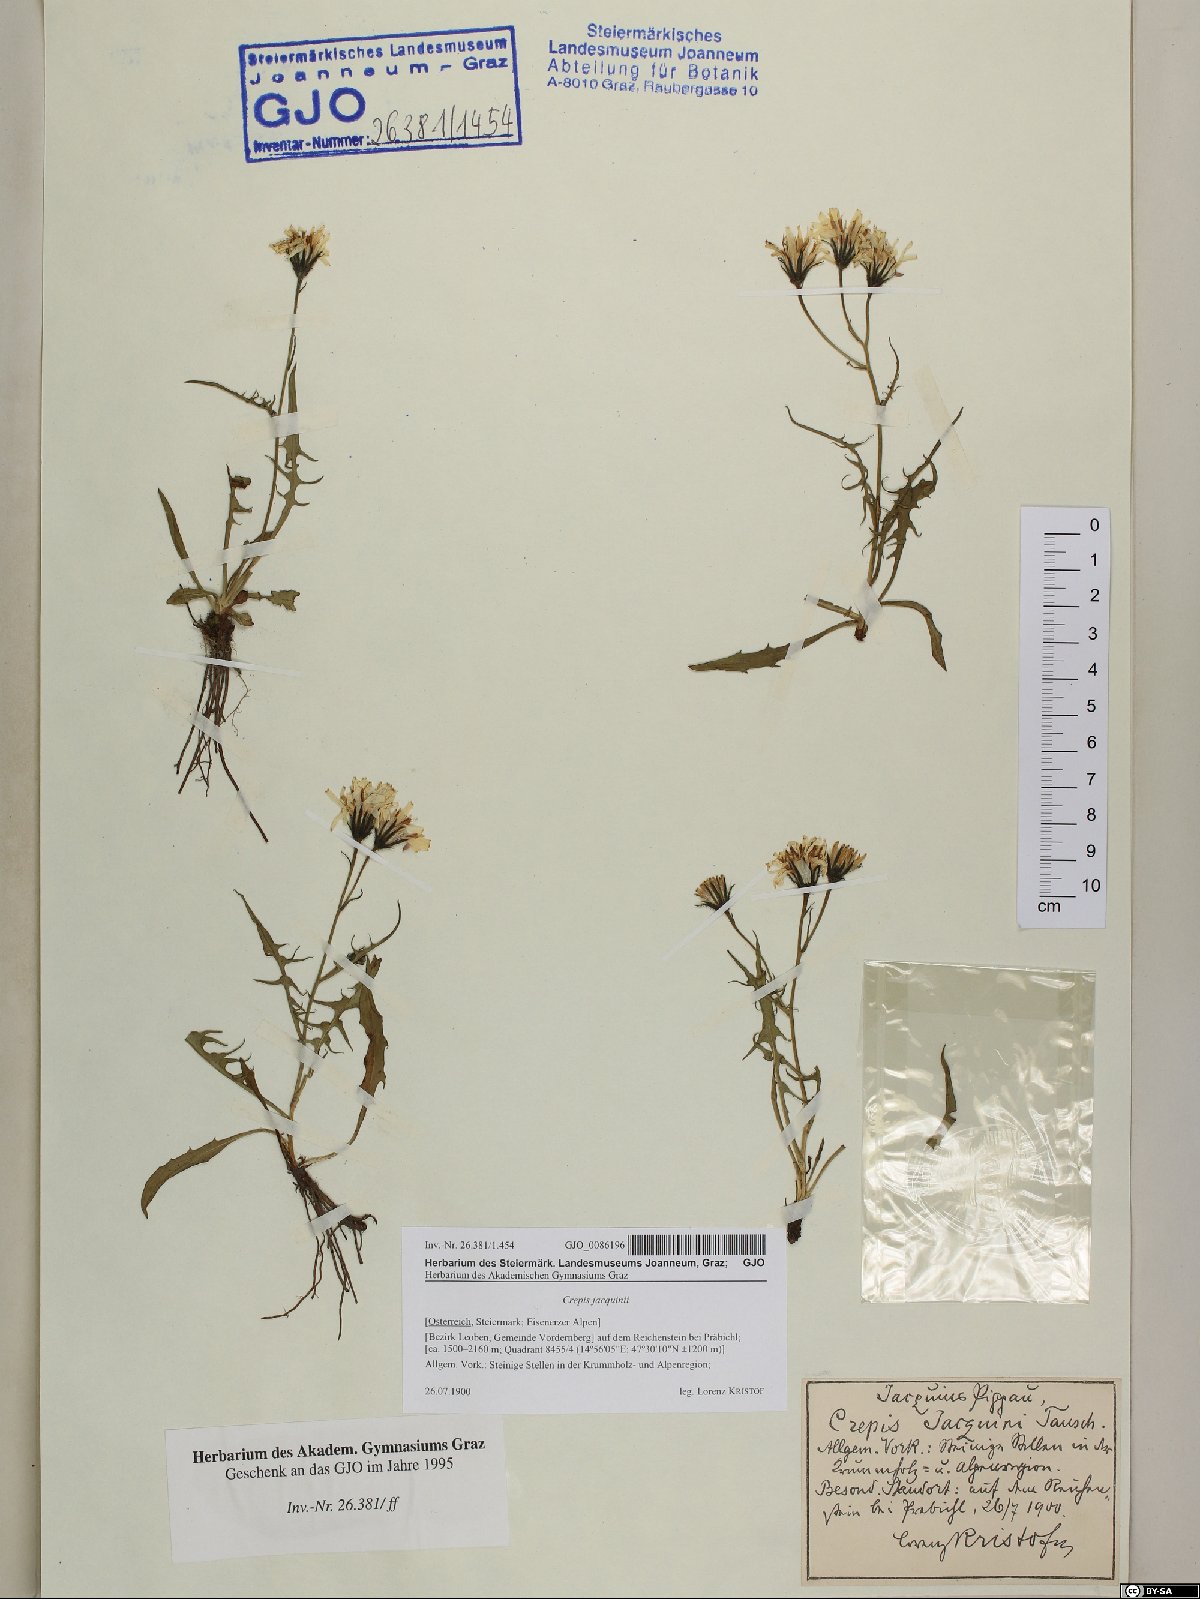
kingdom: Plantae
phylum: Tracheophyta
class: Magnoliopsida
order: Asterales
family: Asteraceae
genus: Crepis
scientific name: Crepis jacquinii
